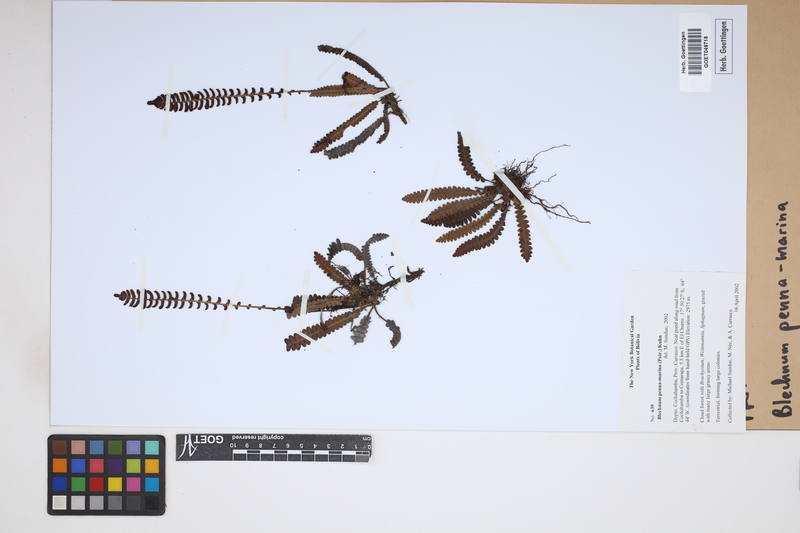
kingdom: Plantae
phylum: Tracheophyta
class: Polypodiopsida
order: Polypodiales
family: Blechnaceae
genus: Austroblechnum
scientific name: Austroblechnum penna-marina
